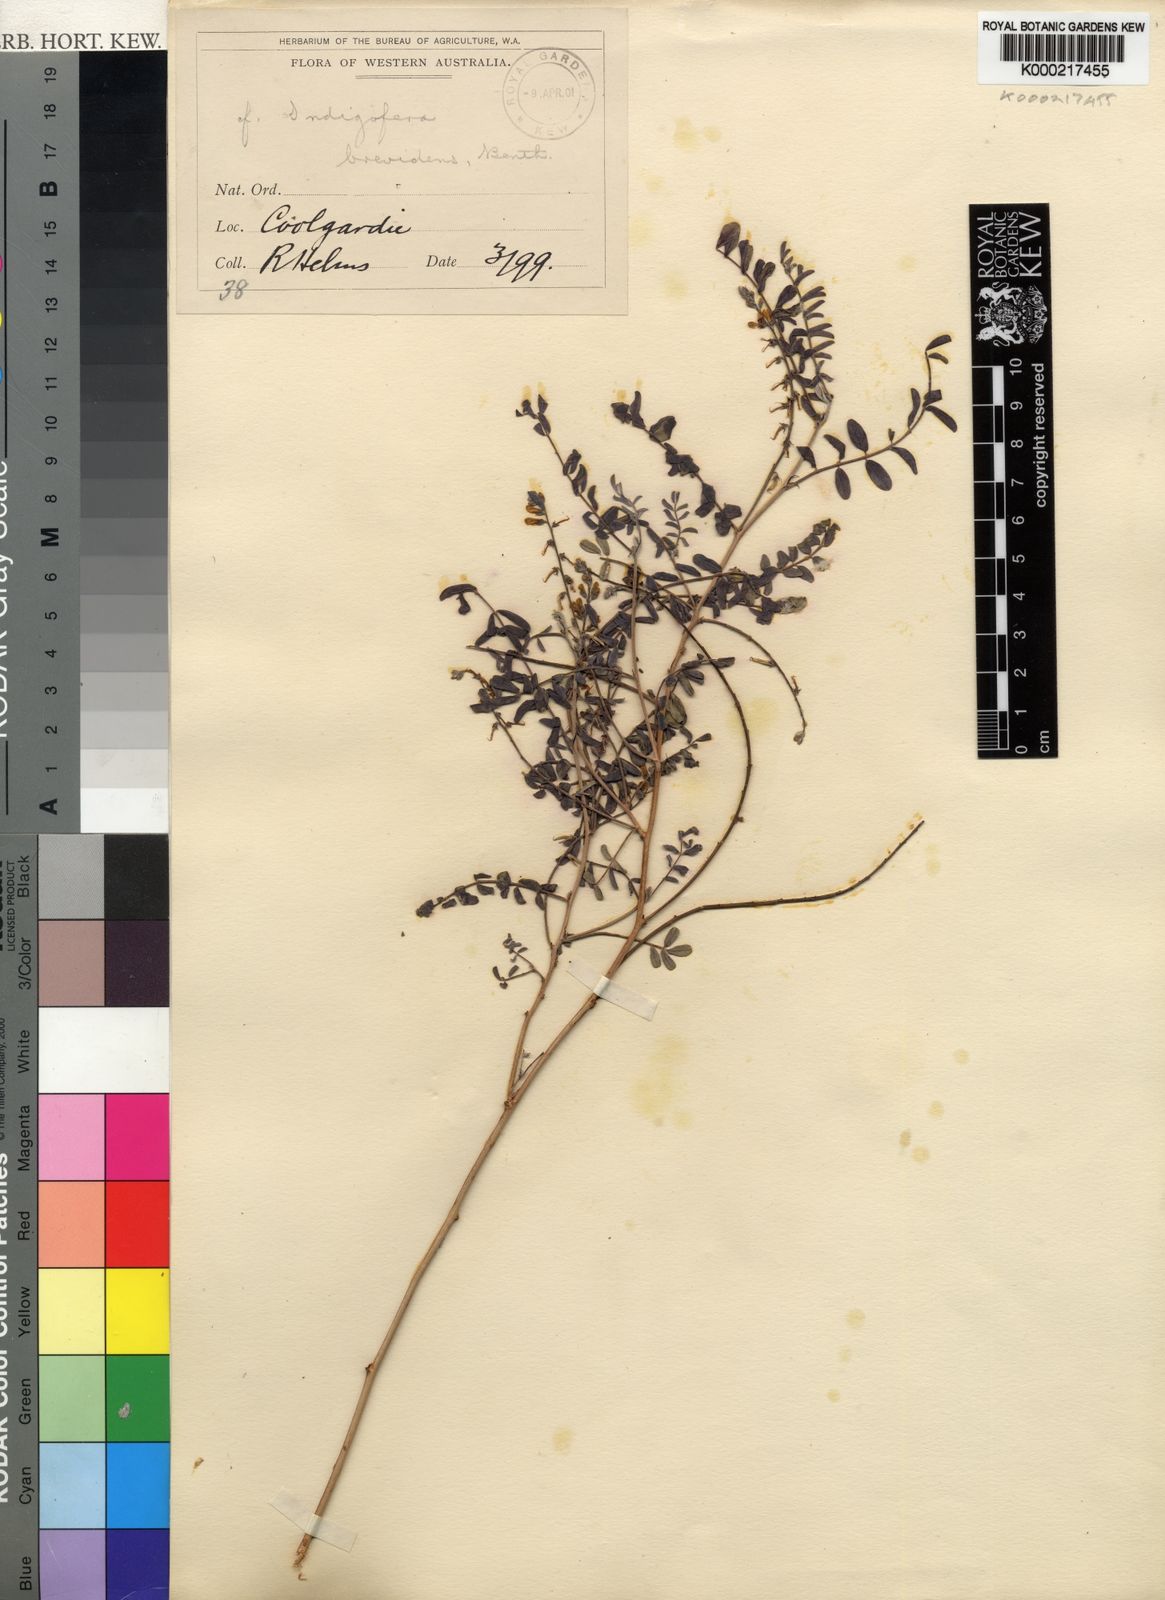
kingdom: Plantae
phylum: Tracheophyta
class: Magnoliopsida
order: Fabales
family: Fabaceae
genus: Indigofera
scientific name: Indigofera brevidens
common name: Desert indigo
